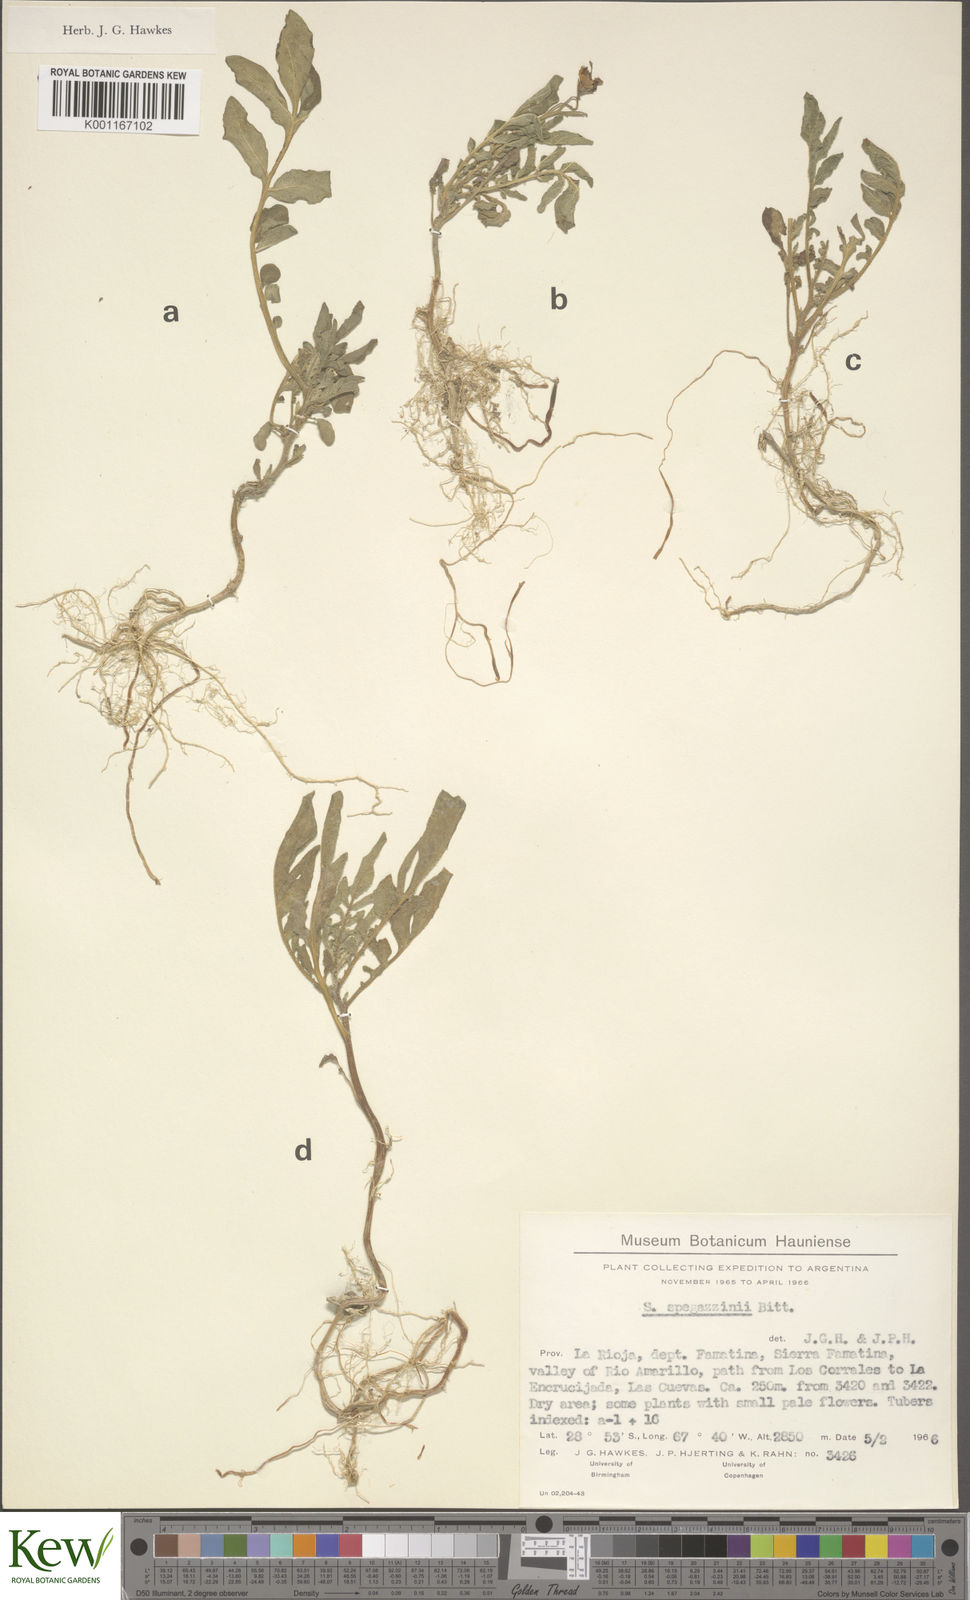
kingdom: Plantae
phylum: Tracheophyta
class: Magnoliopsida
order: Solanales
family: Solanaceae
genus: Solanum
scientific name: Solanum brevicaule
